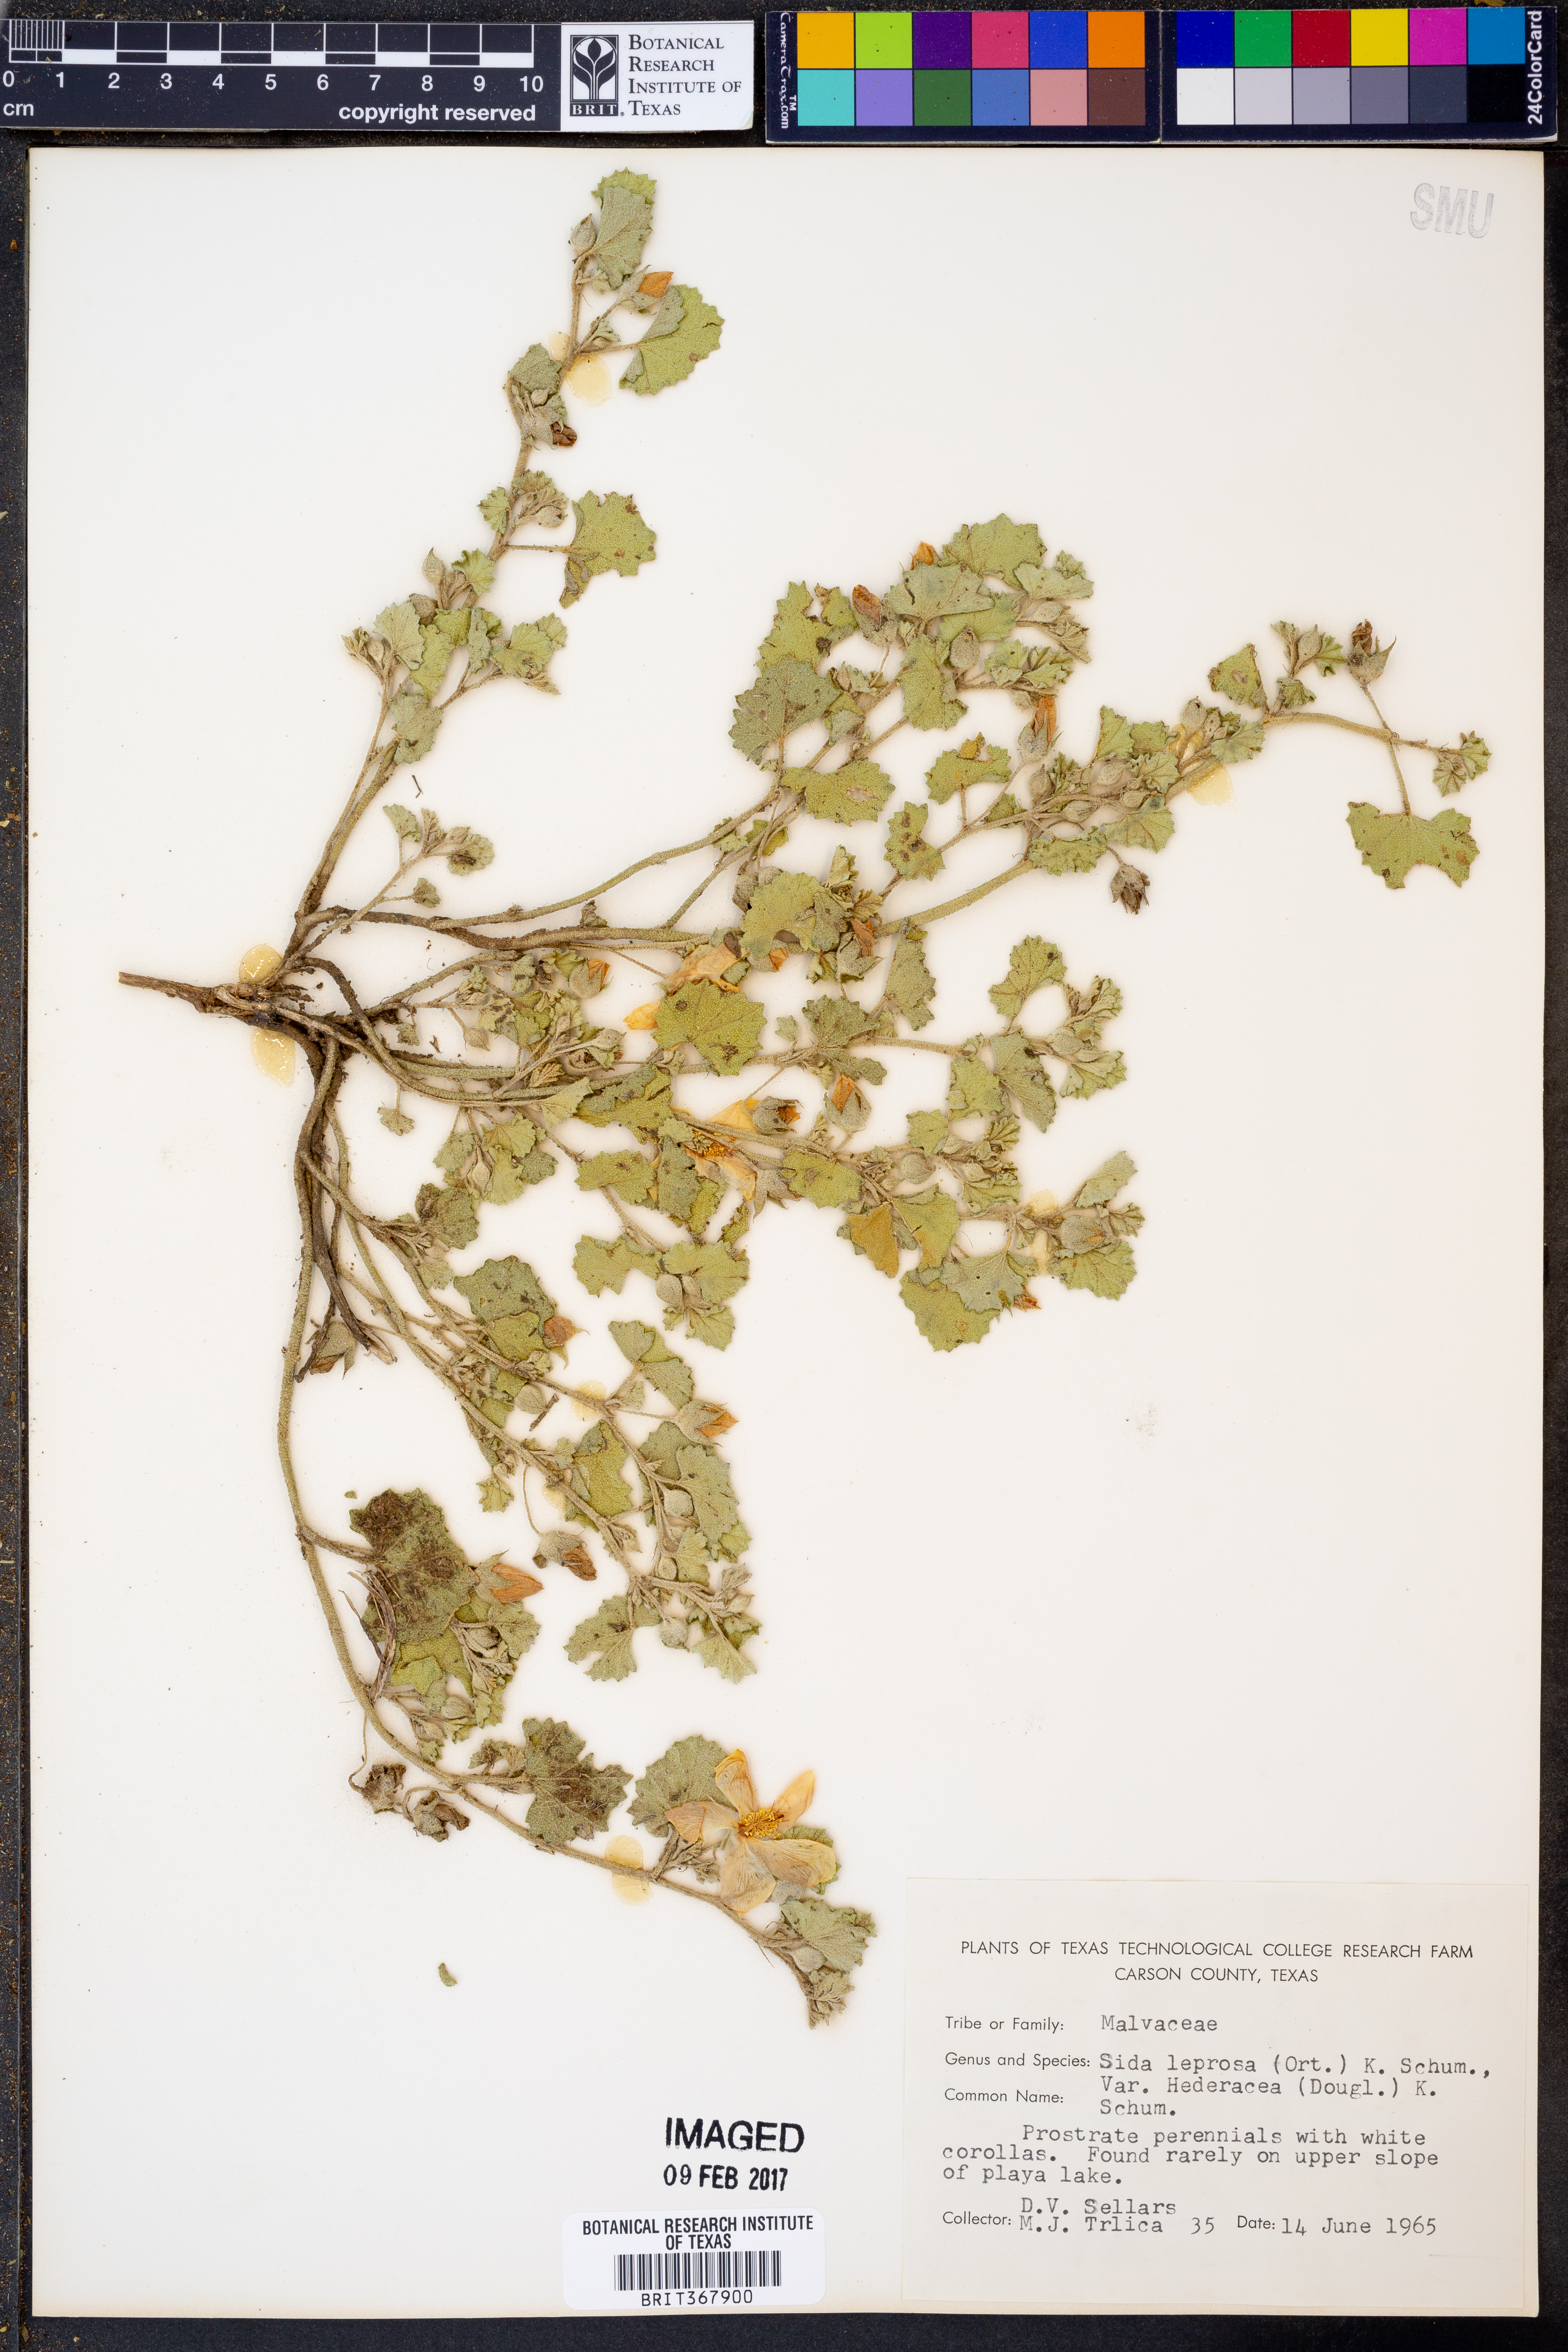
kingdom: Plantae
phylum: Tracheophyta
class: Magnoliopsida
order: Malvales
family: Malvaceae
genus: Malvella
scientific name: Malvella leprosa
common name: Alkali-mallow
